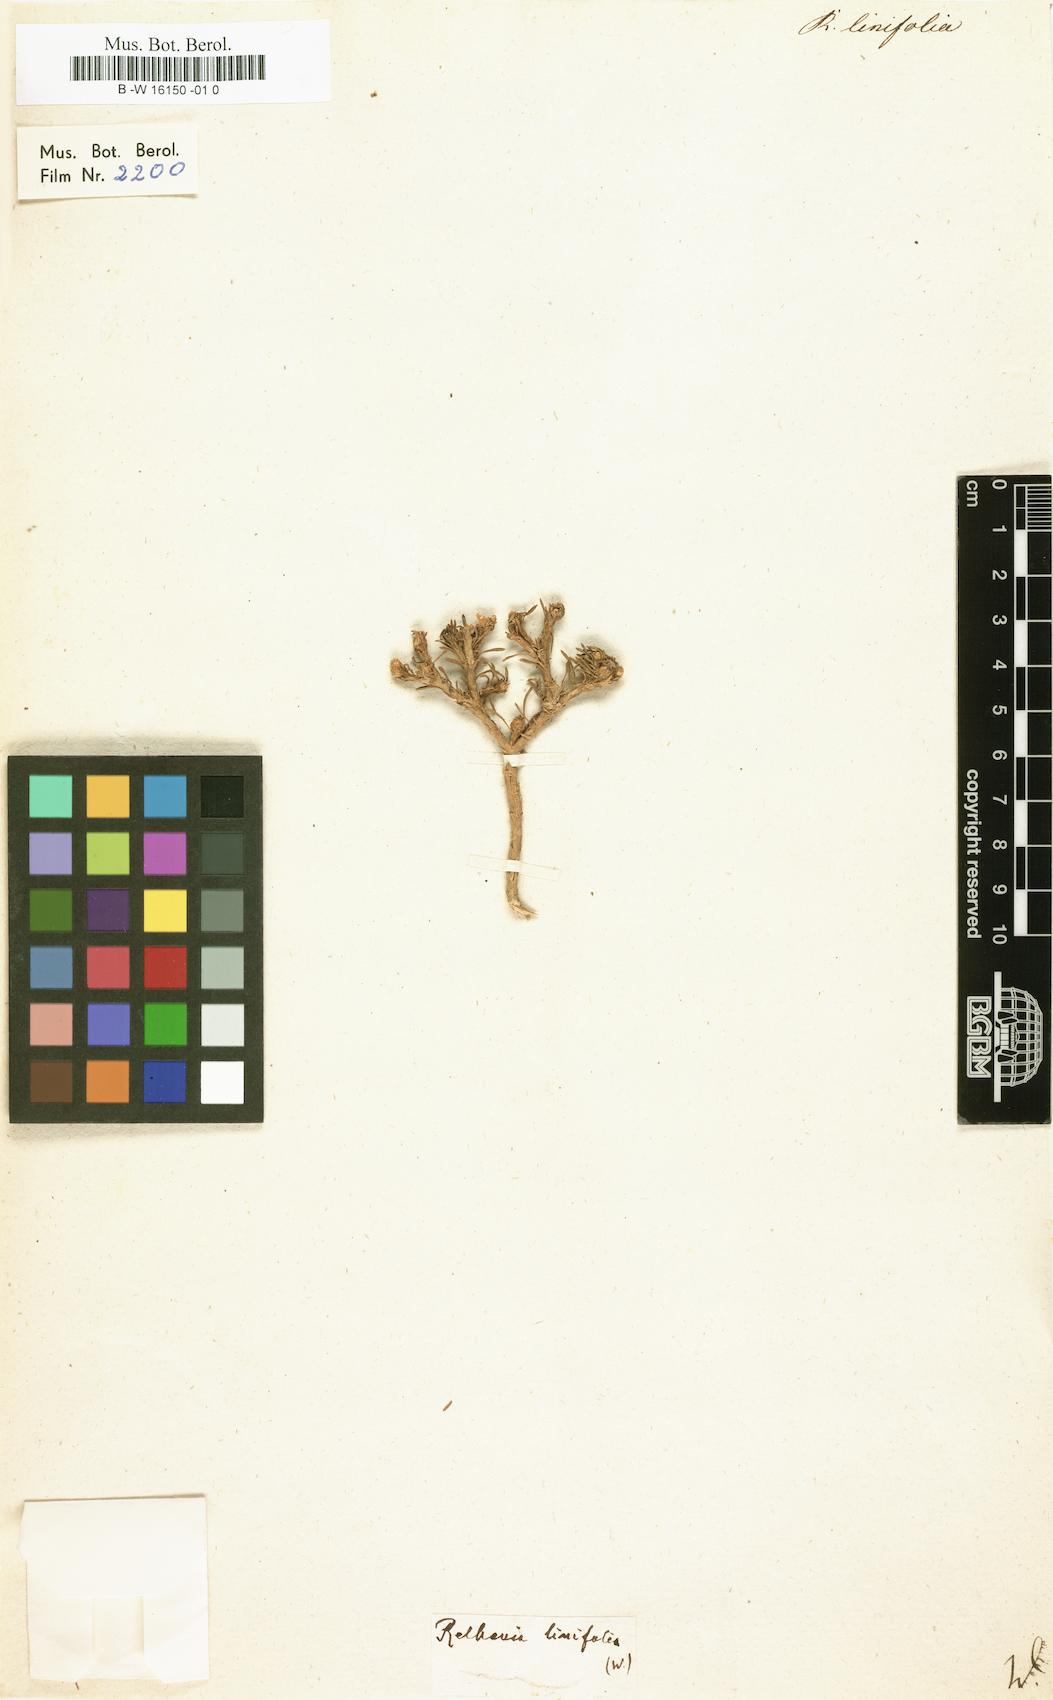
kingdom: Plantae
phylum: Tracheophyta
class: Magnoliopsida
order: Asterales
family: Asteraceae
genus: Oedera
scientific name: Oedera humilis
